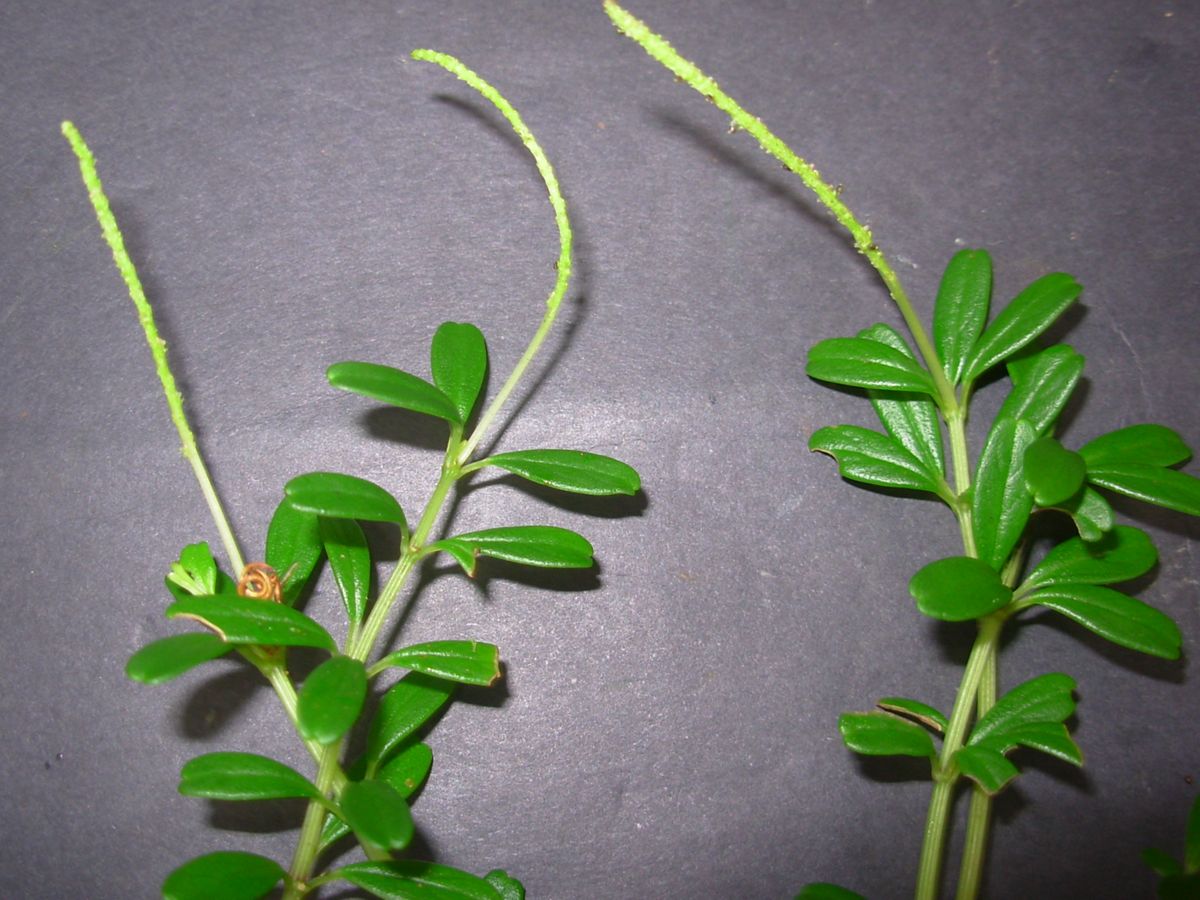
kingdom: Plantae
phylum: Tracheophyta
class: Magnoliopsida
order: Piperales
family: Piperaceae
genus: Peperomia
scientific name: Peperomia galioides
